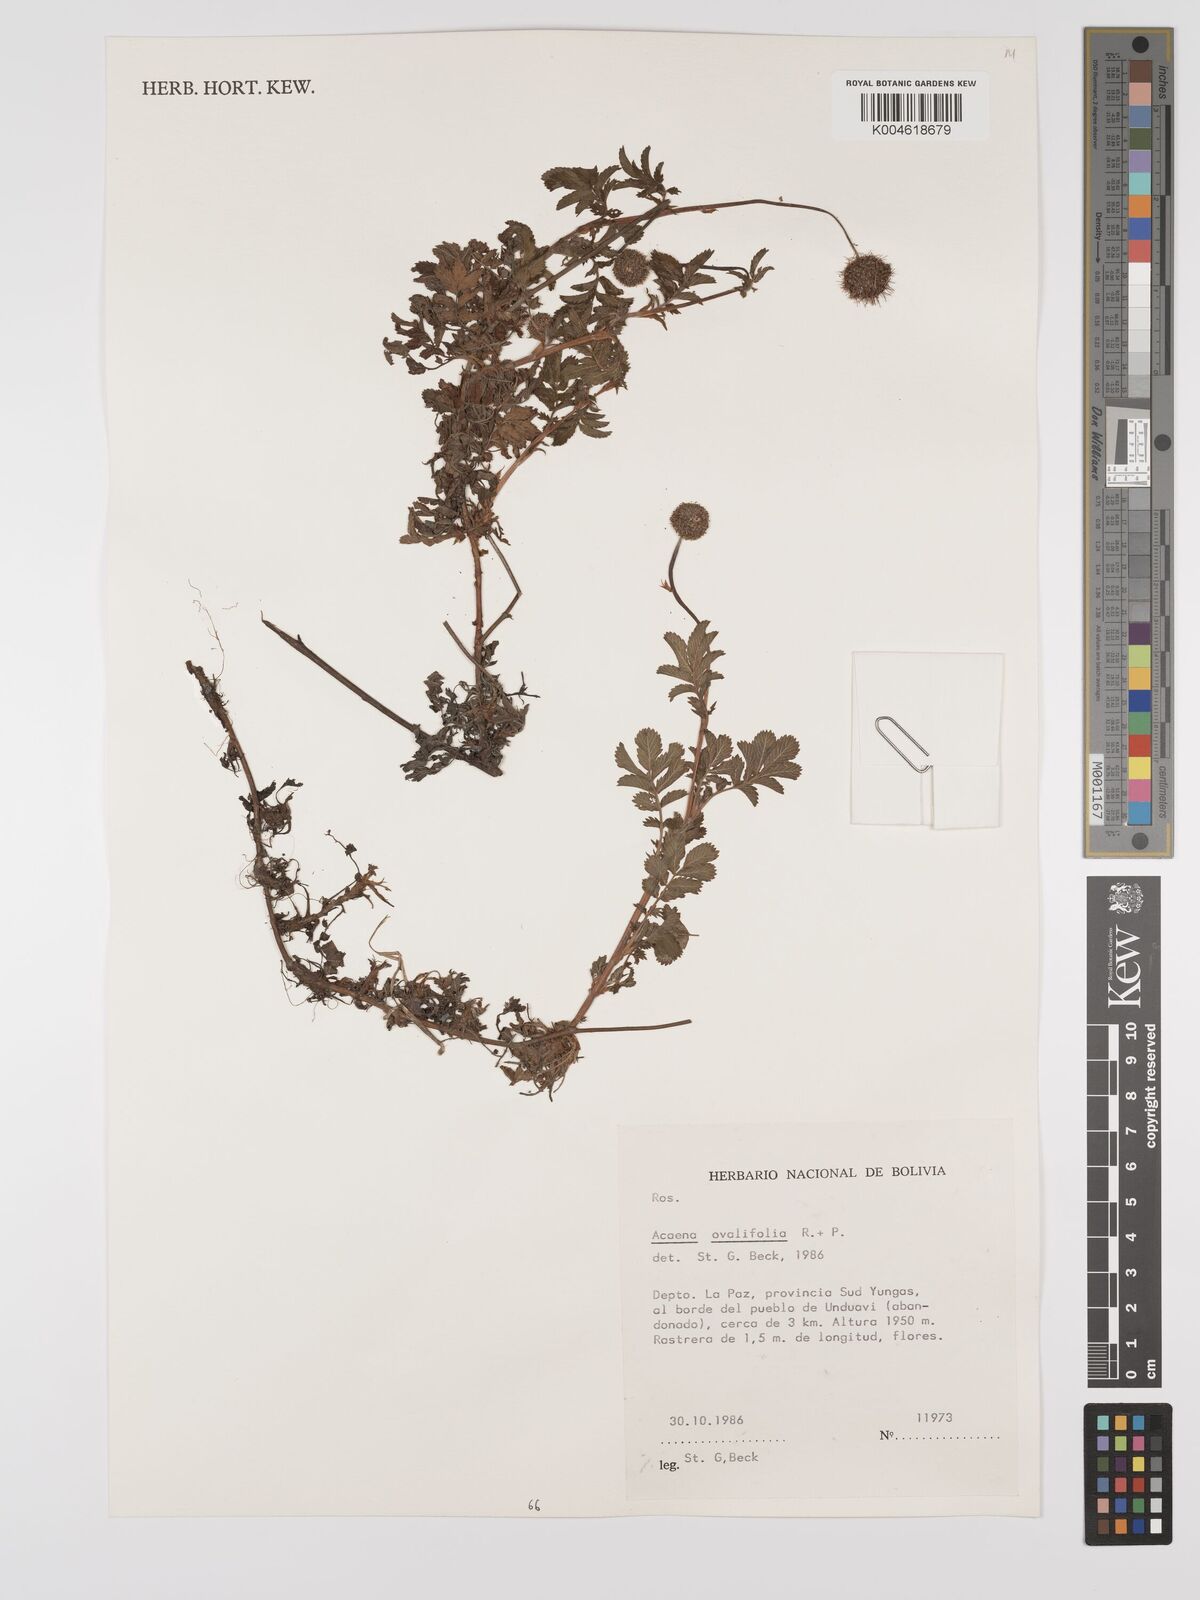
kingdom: Plantae
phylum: Tracheophyta
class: Magnoliopsida
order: Rosales
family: Rosaceae
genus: Acaena
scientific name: Acaena ovalifolia
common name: Two-spined acaena
